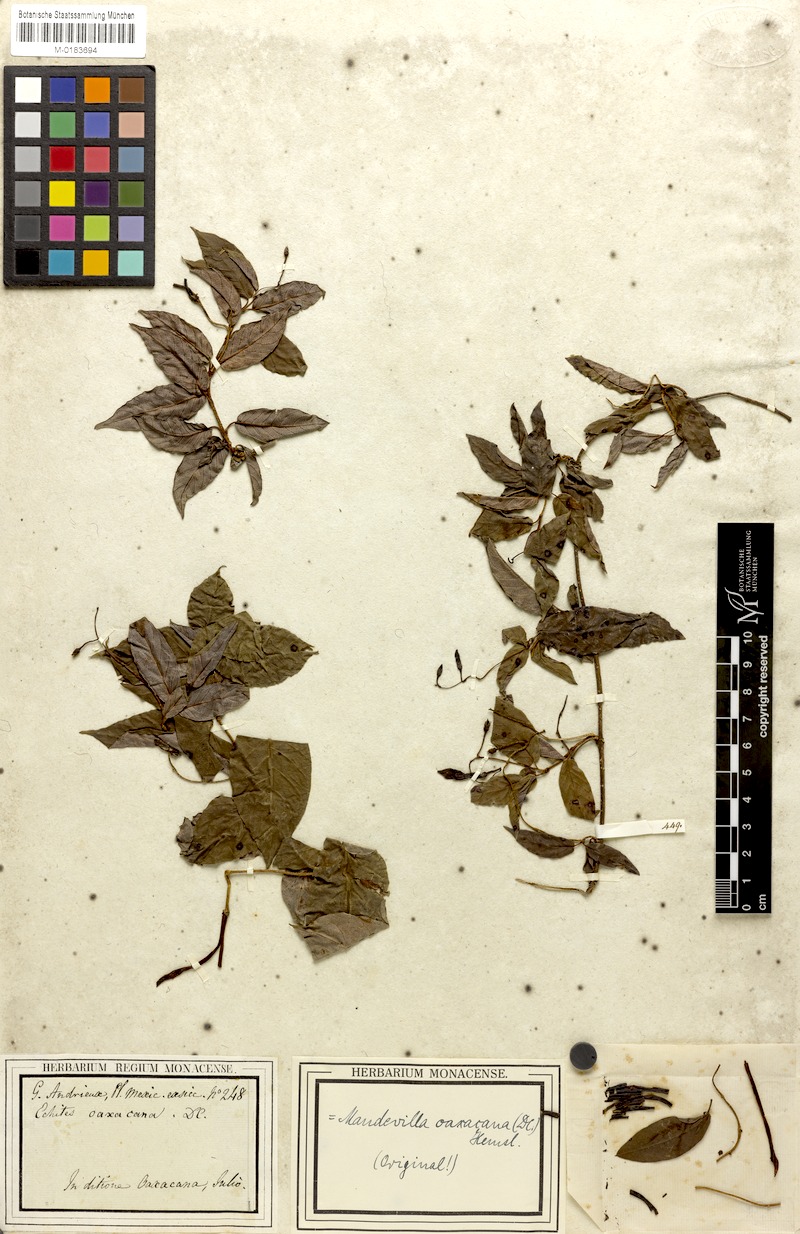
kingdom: Plantae
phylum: Tracheophyta
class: Magnoliopsida
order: Gentianales
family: Apocynaceae
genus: Mandevilla
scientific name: Mandevilla oaxacana
